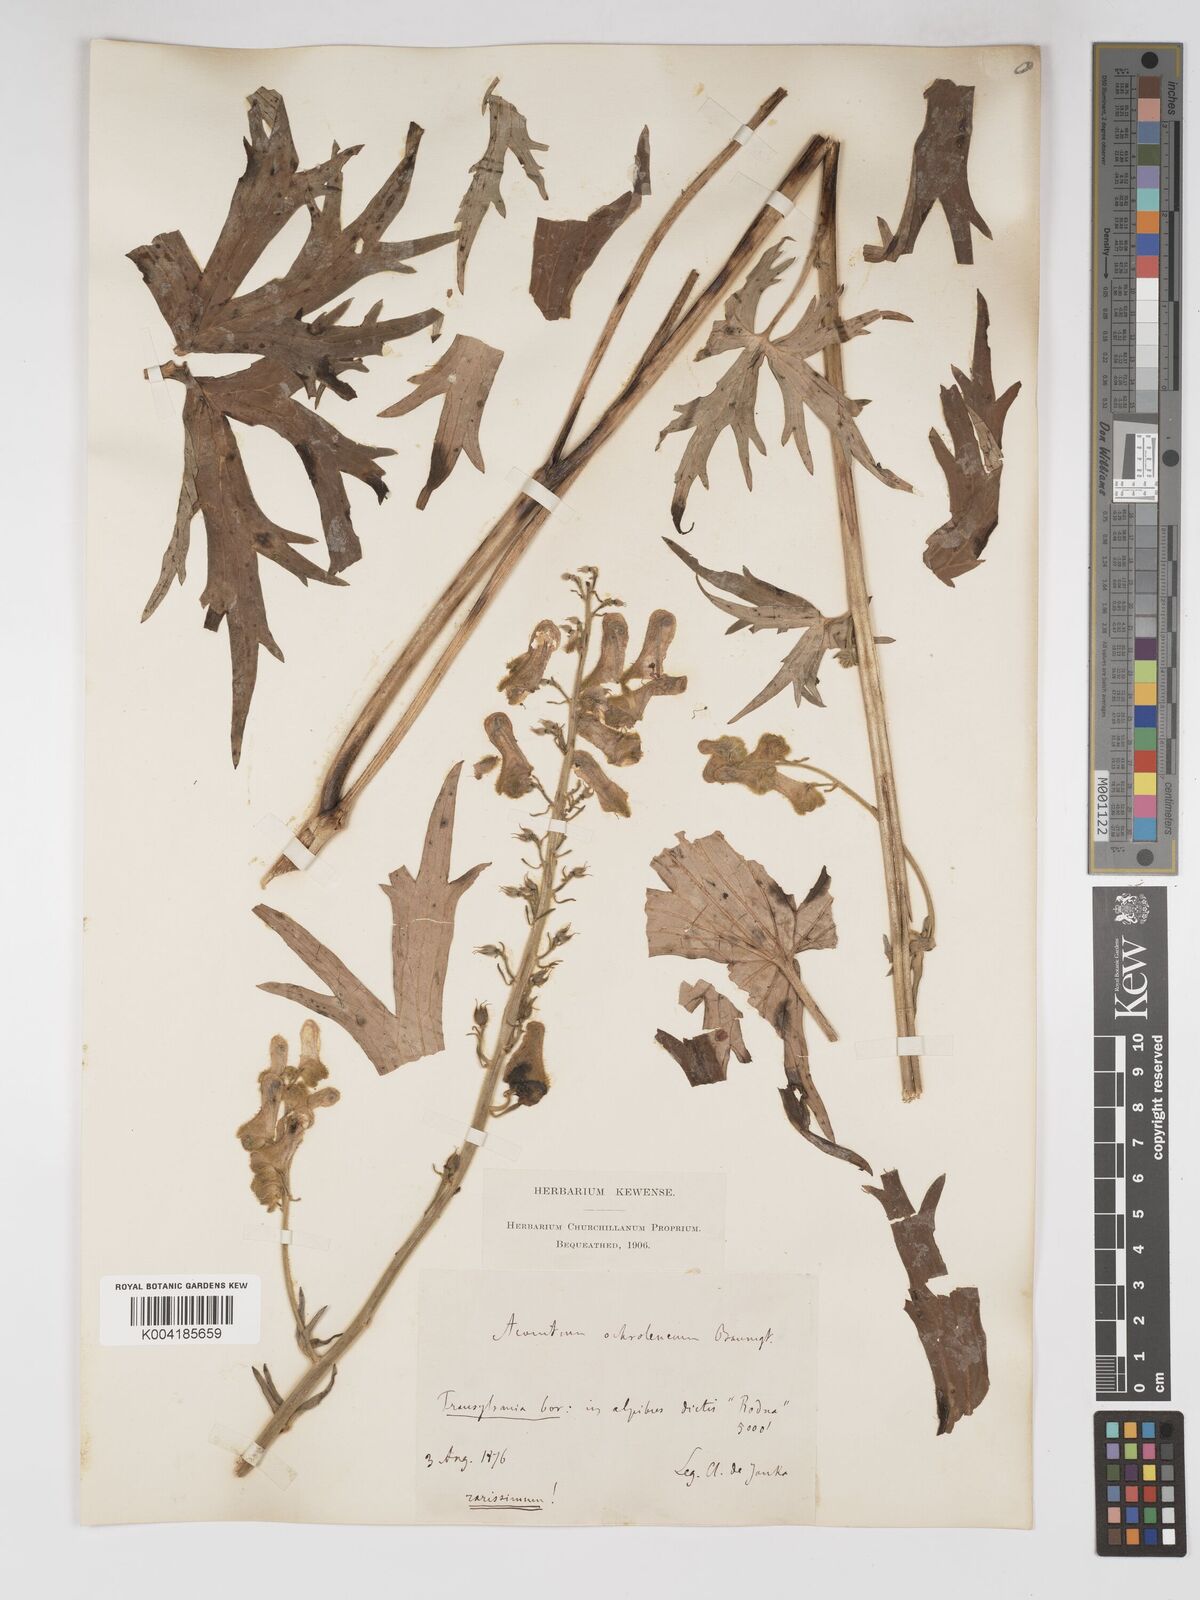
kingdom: Plantae
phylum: Tracheophyta
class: Magnoliopsida
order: Ranunculales
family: Ranunculaceae
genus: Aconitum
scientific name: Aconitum lycoctonum
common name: Wolf's-bane
